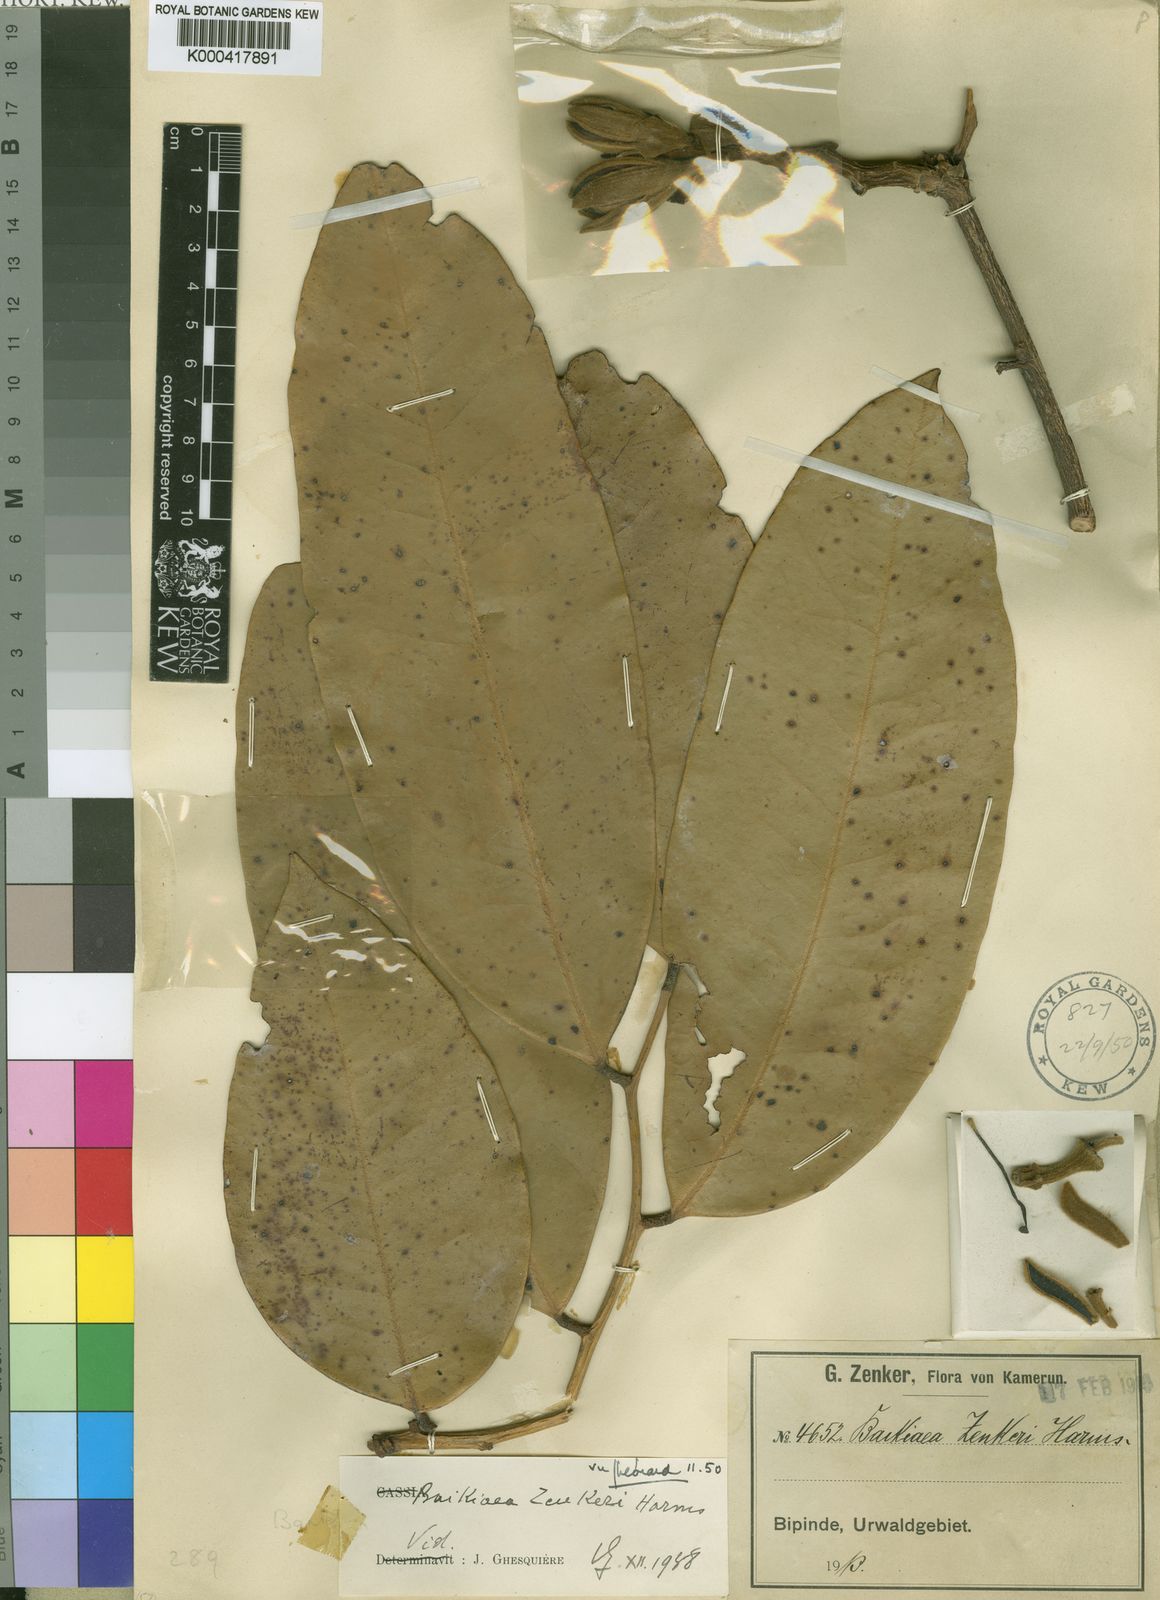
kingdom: Plantae
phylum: Tracheophyta
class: Magnoliopsida
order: Fabales
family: Fabaceae
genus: Baikiaea
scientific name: Baikiaea zenkeri
